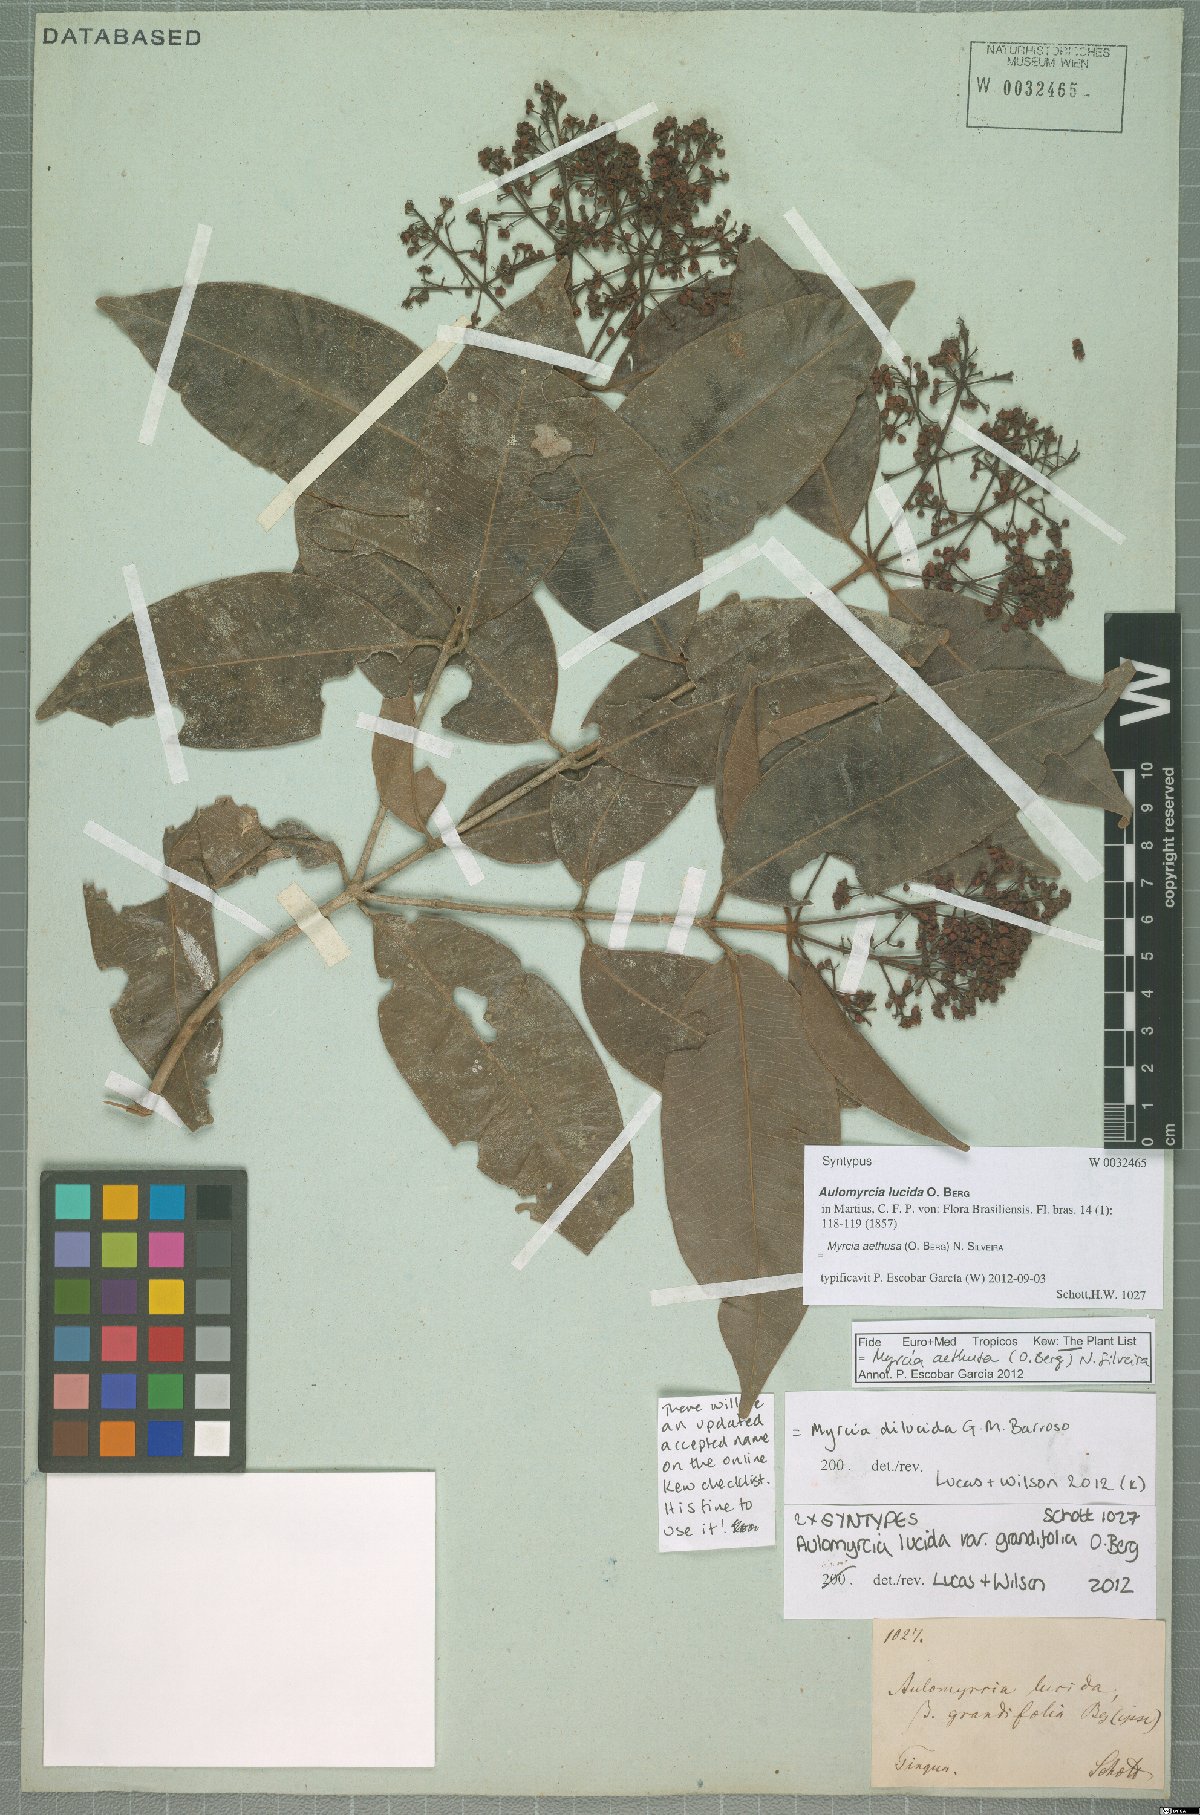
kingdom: Plantae
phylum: Tracheophyta
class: Magnoliopsida
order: Myrtales
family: Myrtaceae
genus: Myrcia
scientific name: Myrcia aethusa
